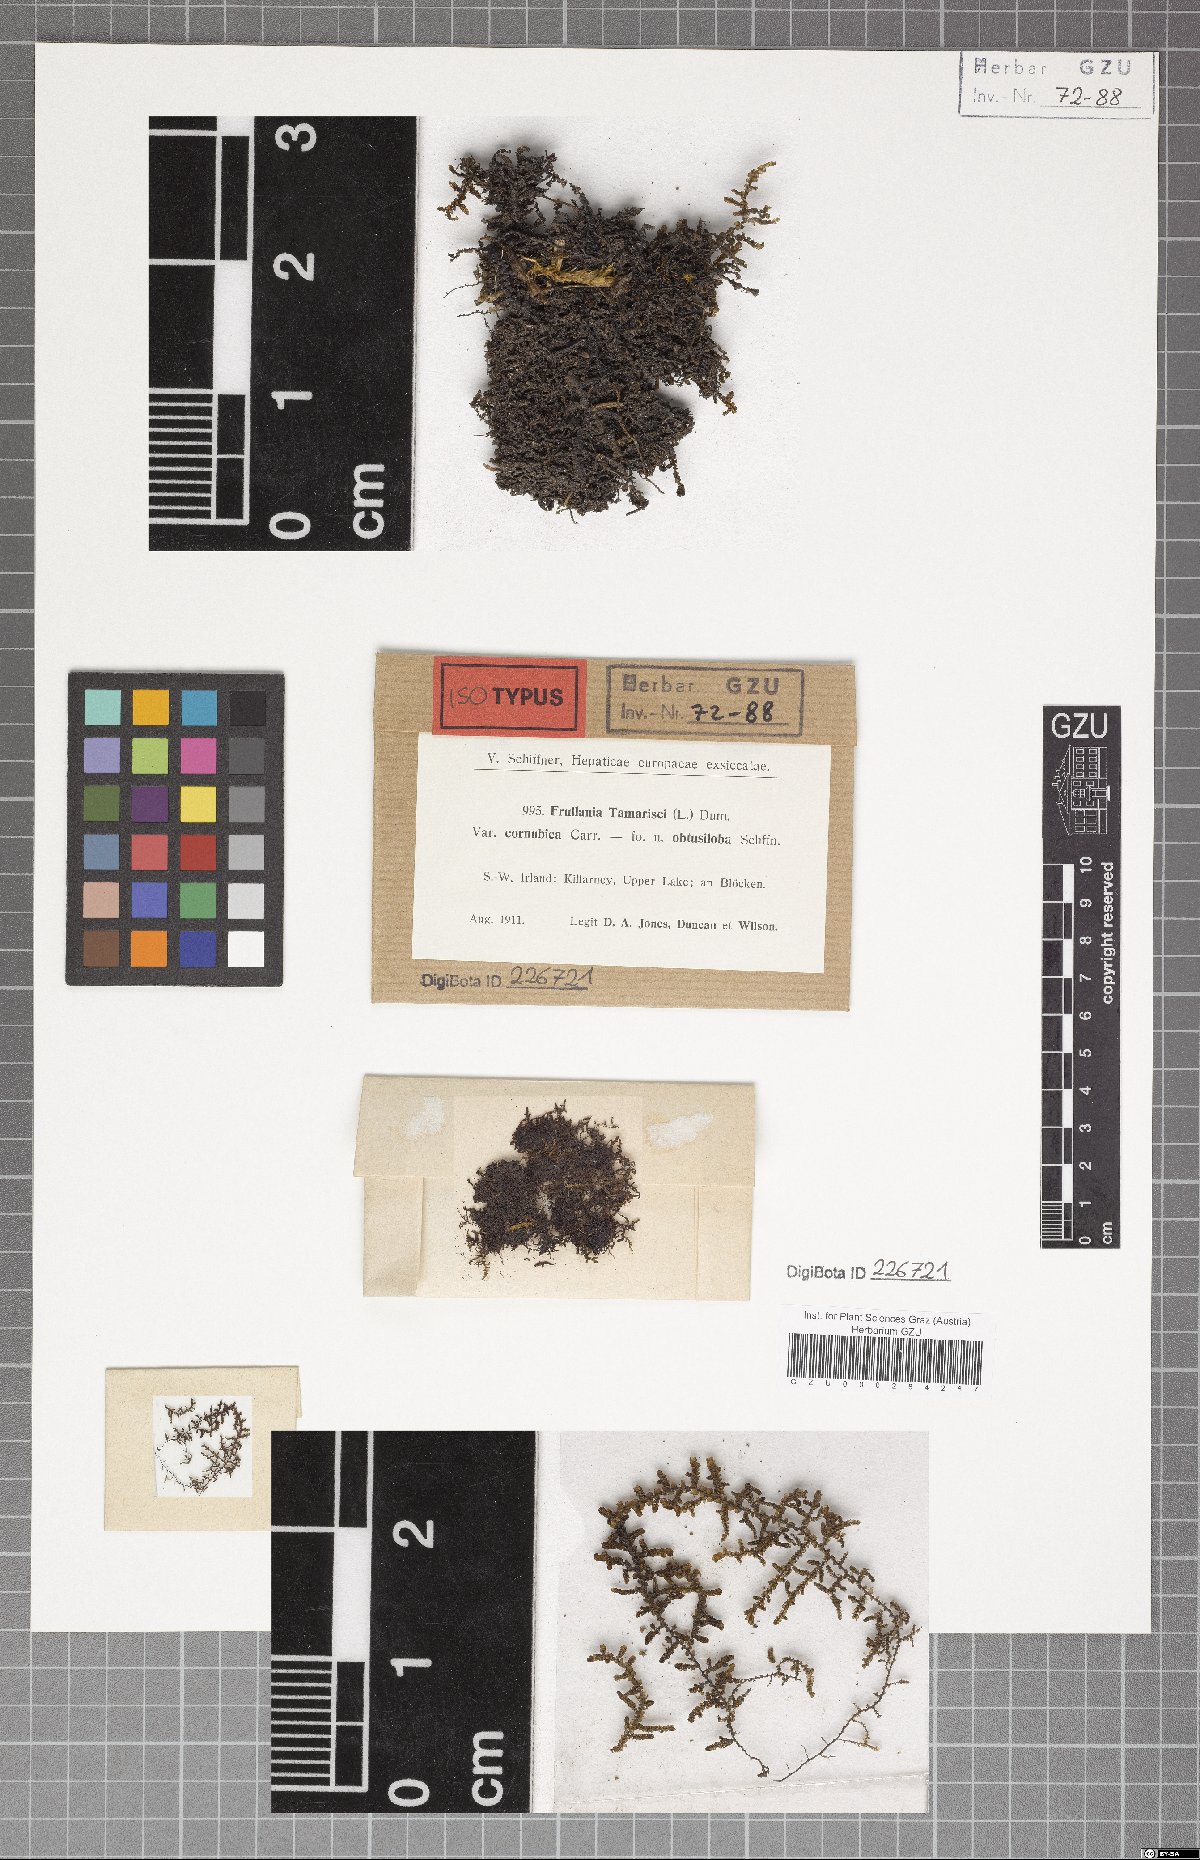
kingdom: Plantae
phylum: Marchantiophyta
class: Jungermanniopsida
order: Porellales
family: Frullaniaceae
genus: Frullania
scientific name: Frullania tamarisci
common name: Tamarisk scalewort
